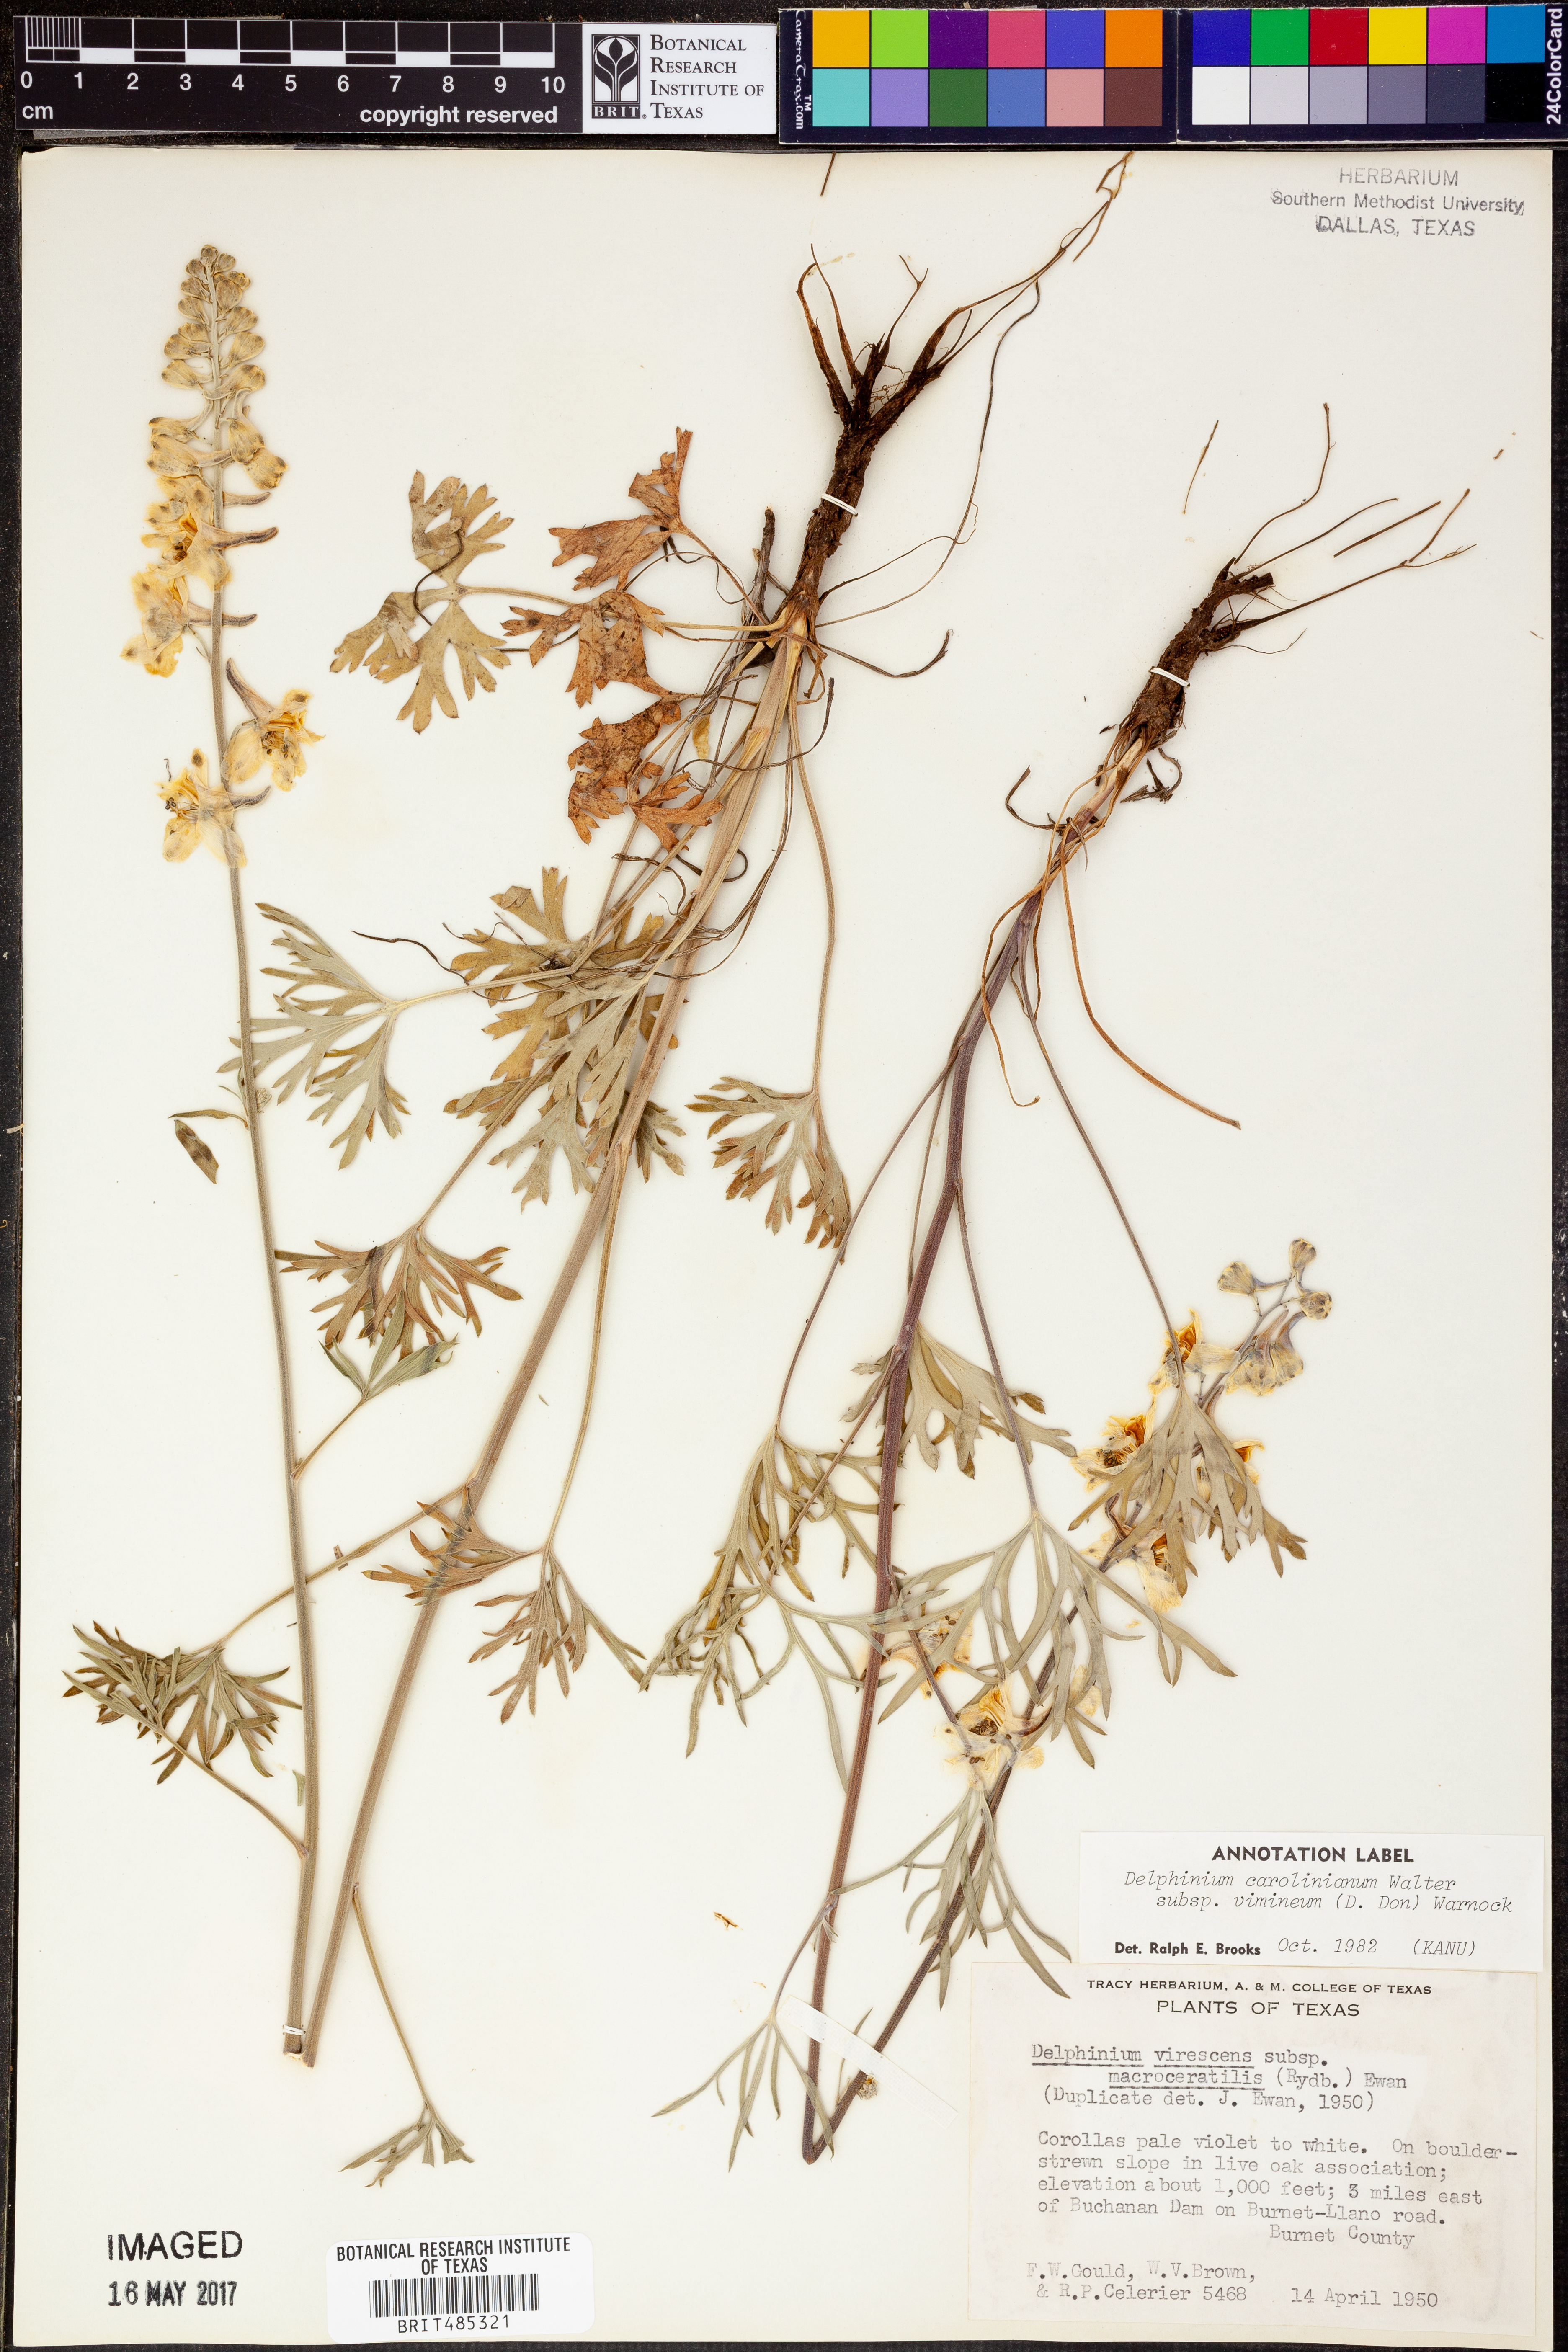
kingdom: Plantae
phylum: Tracheophyta
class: Magnoliopsida
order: Ranunculales
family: Ranunculaceae
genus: Delphinium
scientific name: Delphinium carolinianum
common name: Carolina larkspur
